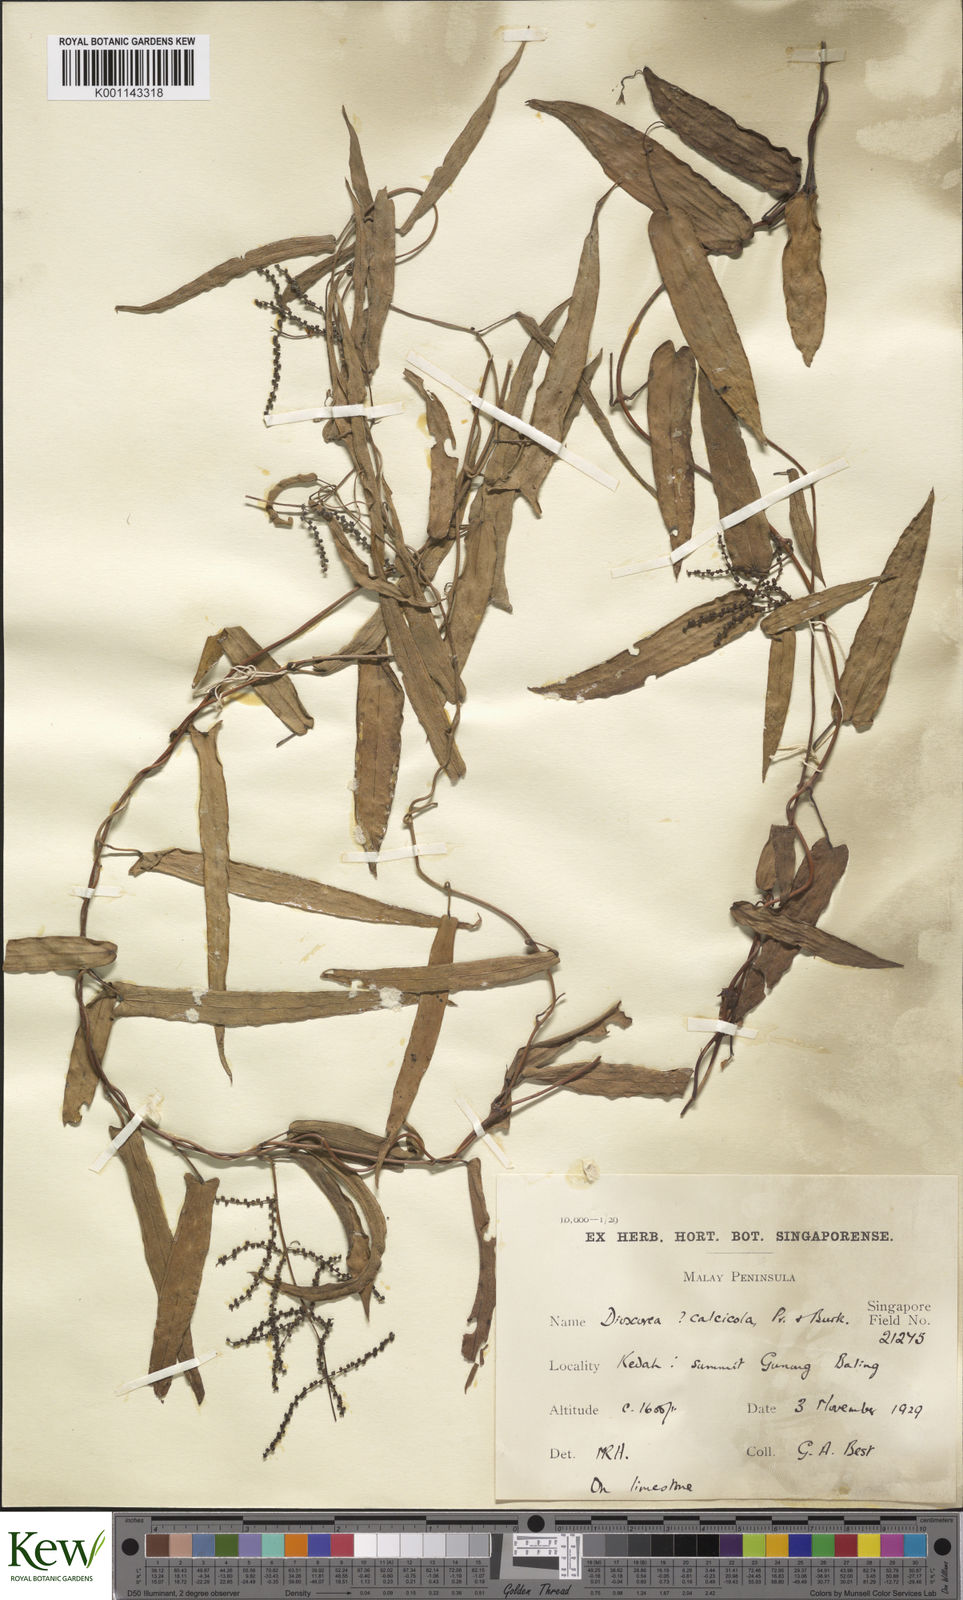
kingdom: Plantae
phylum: Tracheophyta
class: Liliopsida
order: Dioscoreales
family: Dioscoreaceae
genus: Dioscorea
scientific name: Dioscorea calcicola
